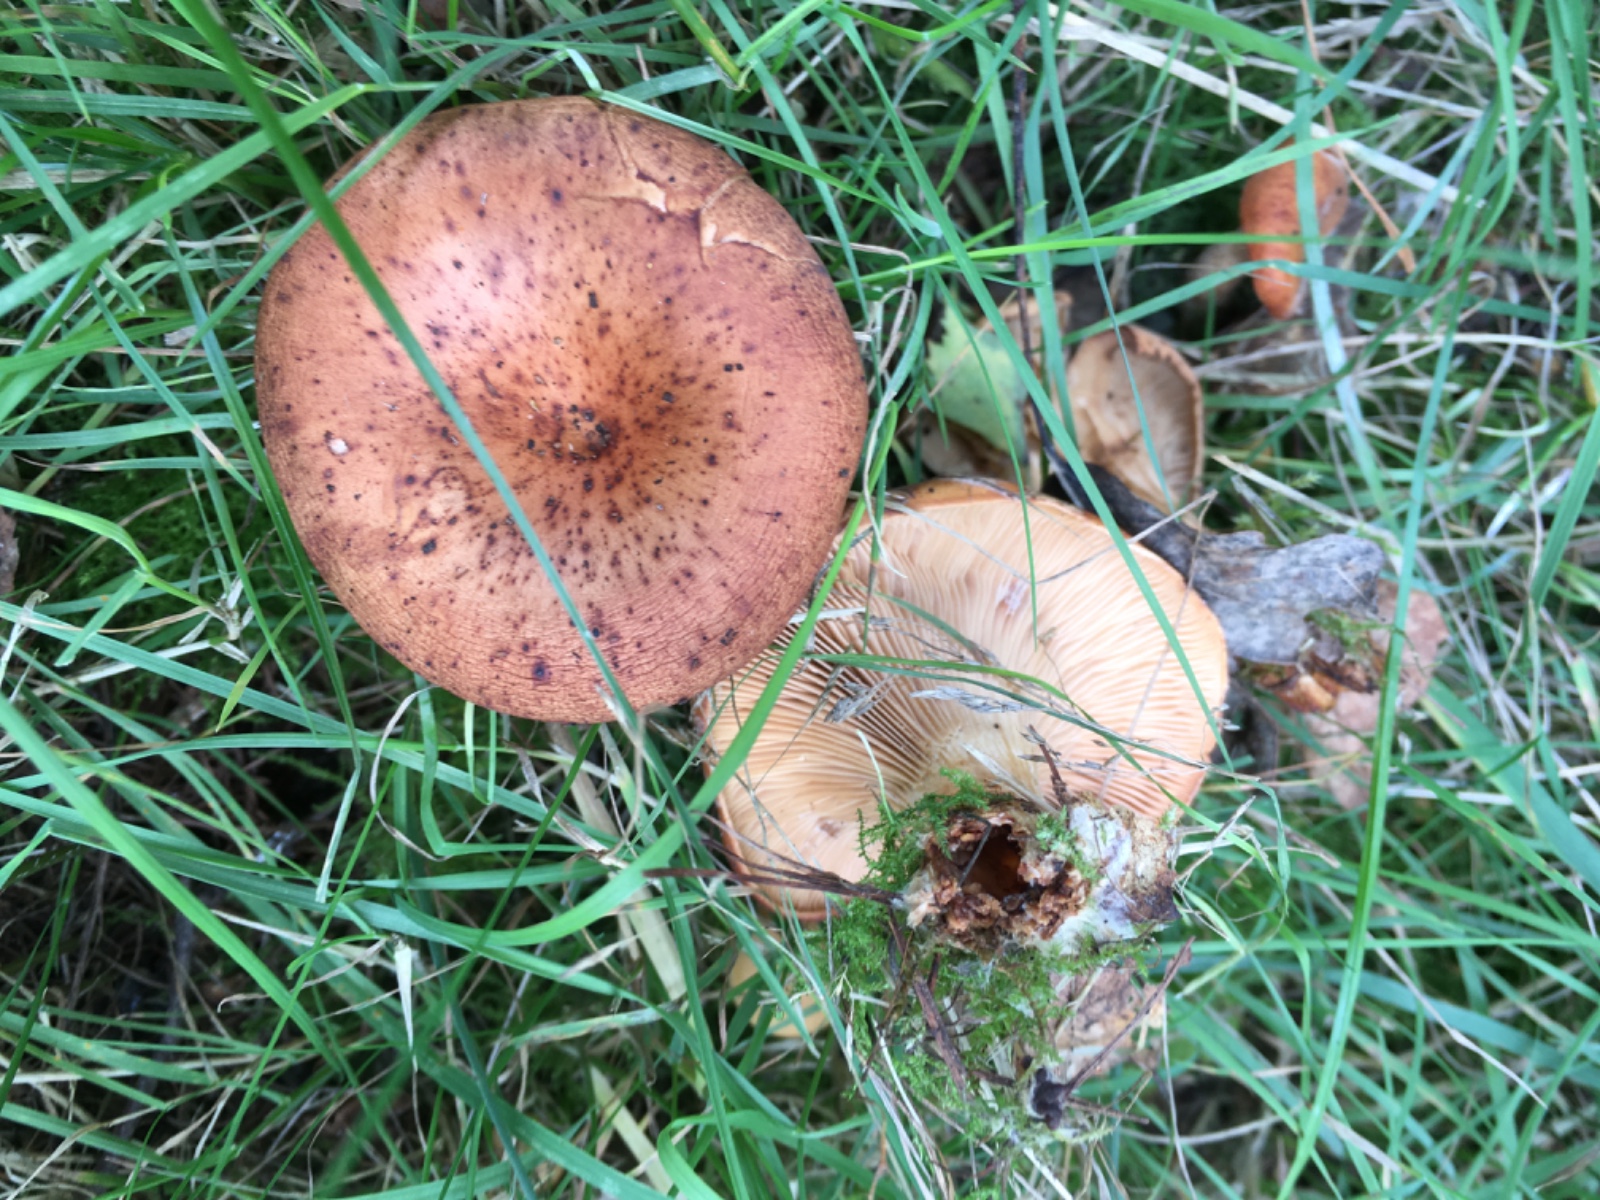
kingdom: Fungi
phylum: Basidiomycota
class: Agaricomycetes
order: Agaricales
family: Tricholomataceae
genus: Paralepista
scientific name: Paralepista flaccida
